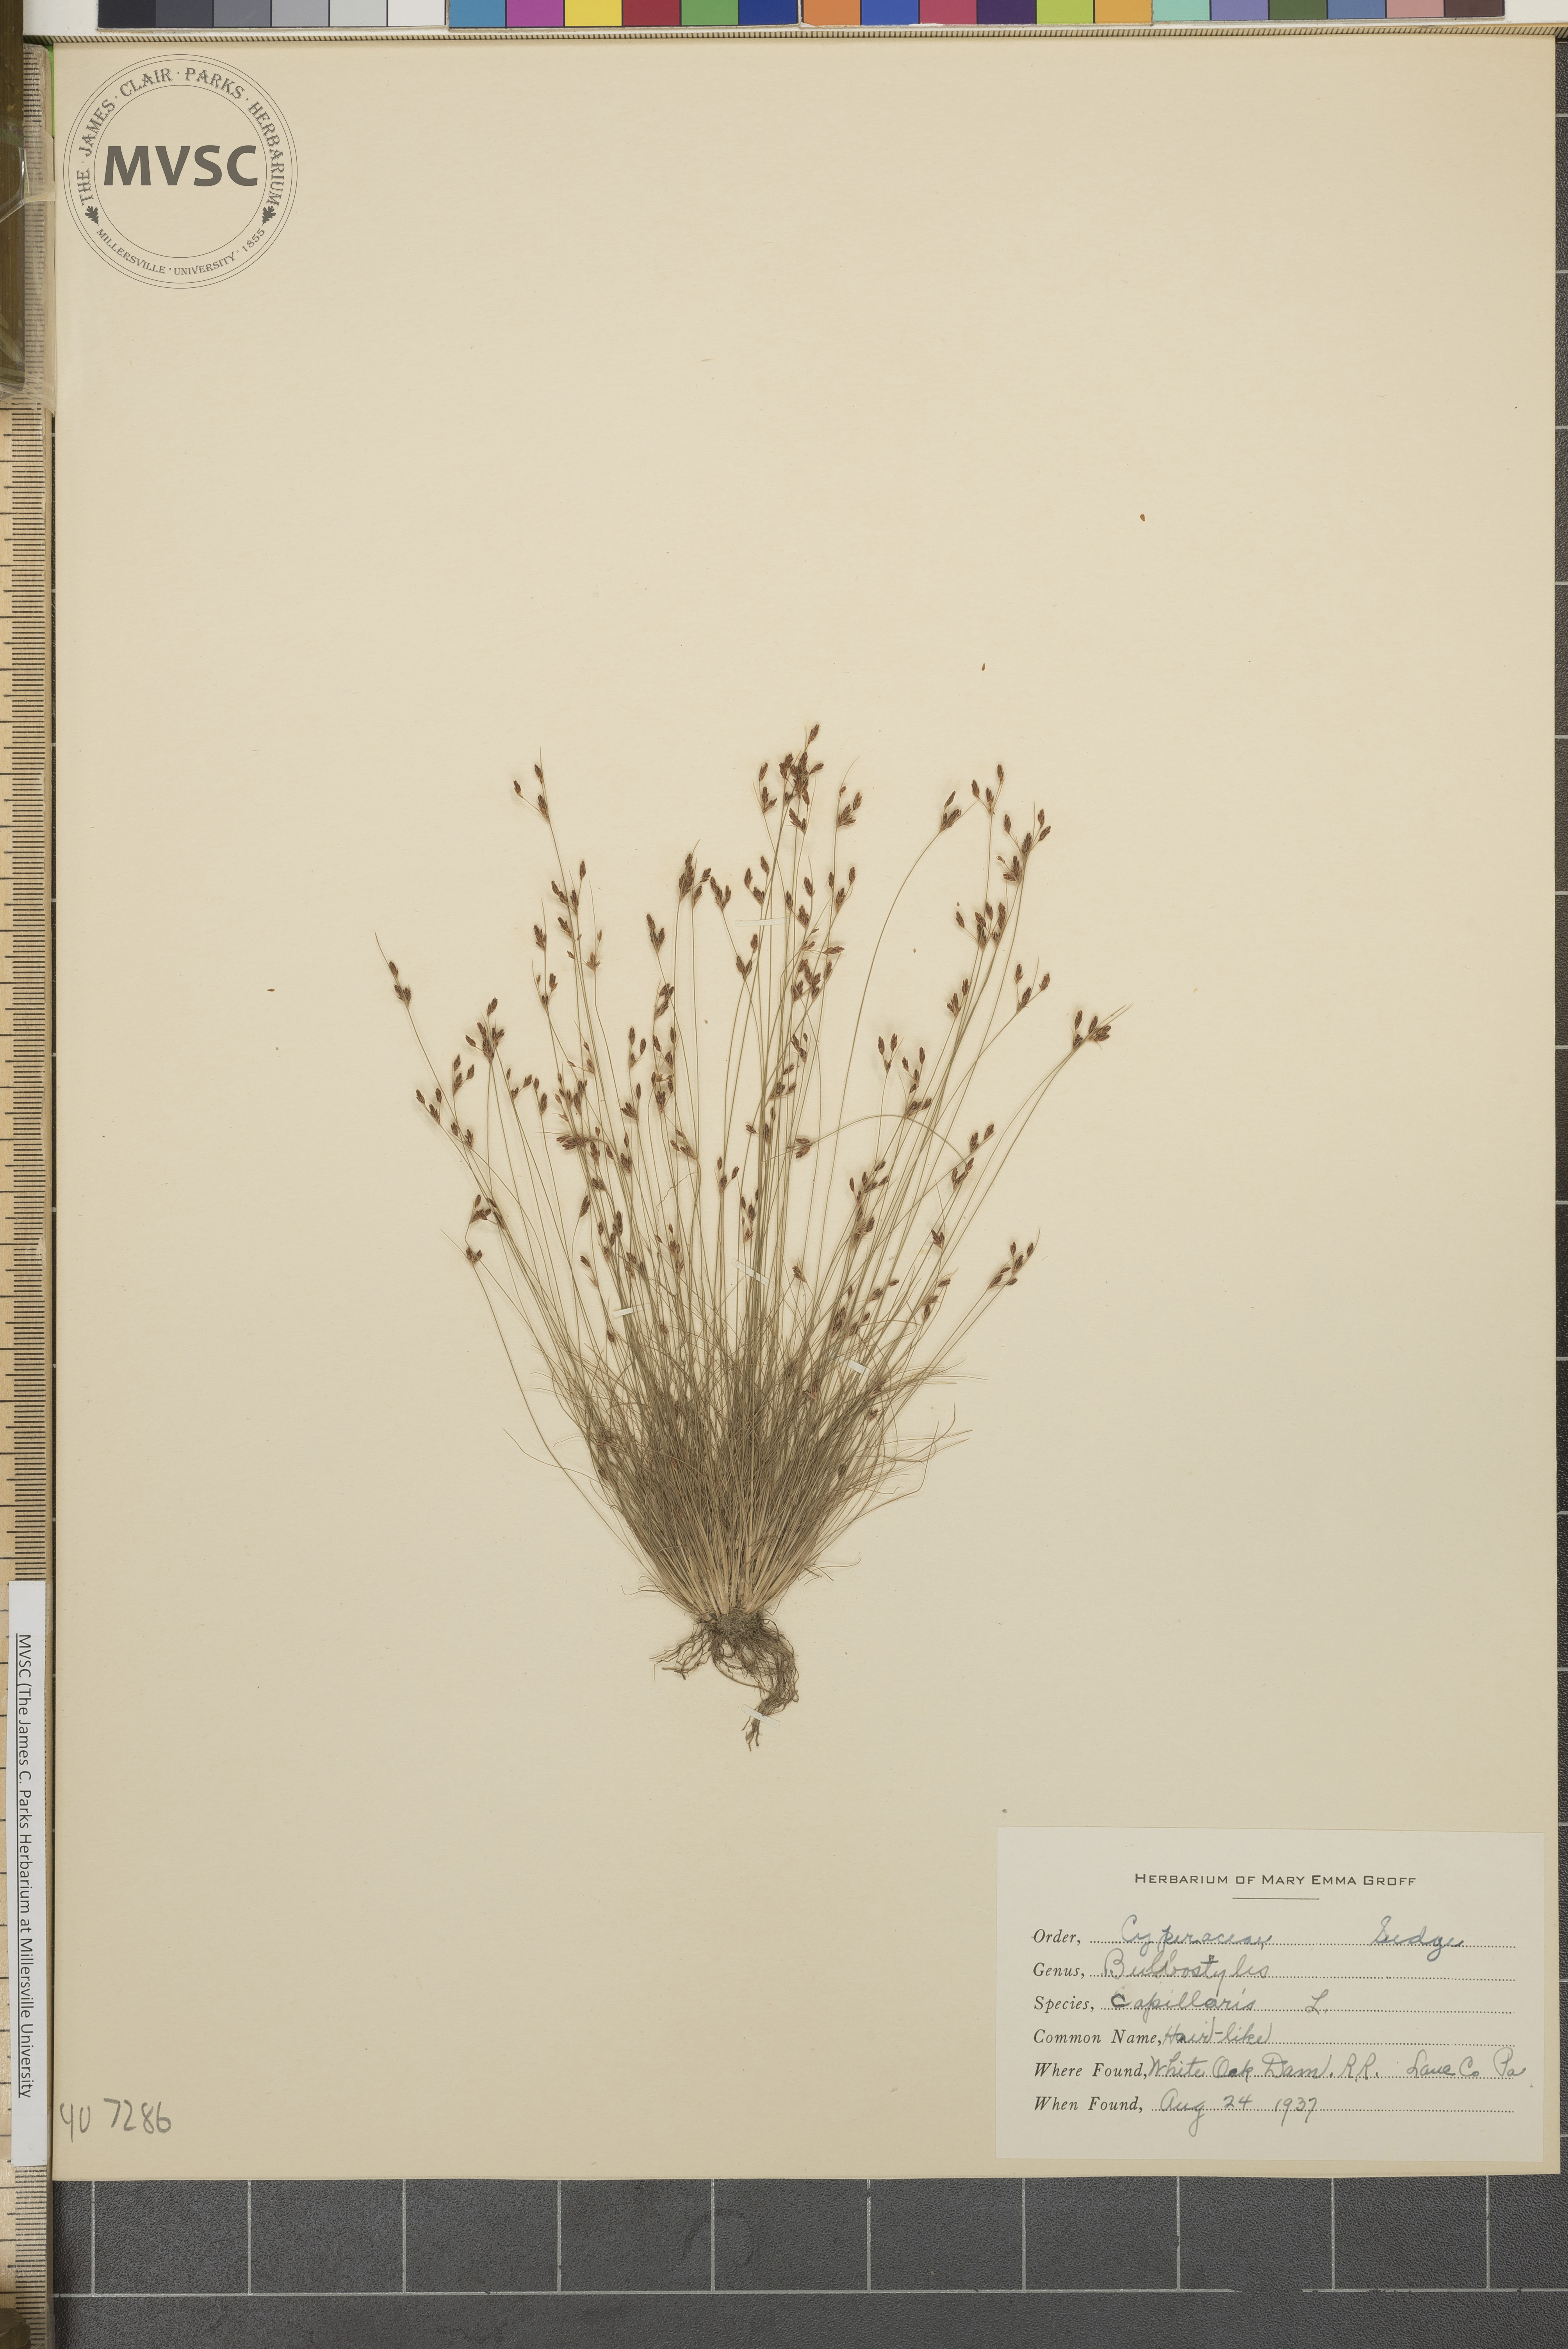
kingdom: Plantae
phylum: Tracheophyta
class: Liliopsida
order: Poales
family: Cyperaceae
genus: Bulbostylis
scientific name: Bulbostylis capillaris
